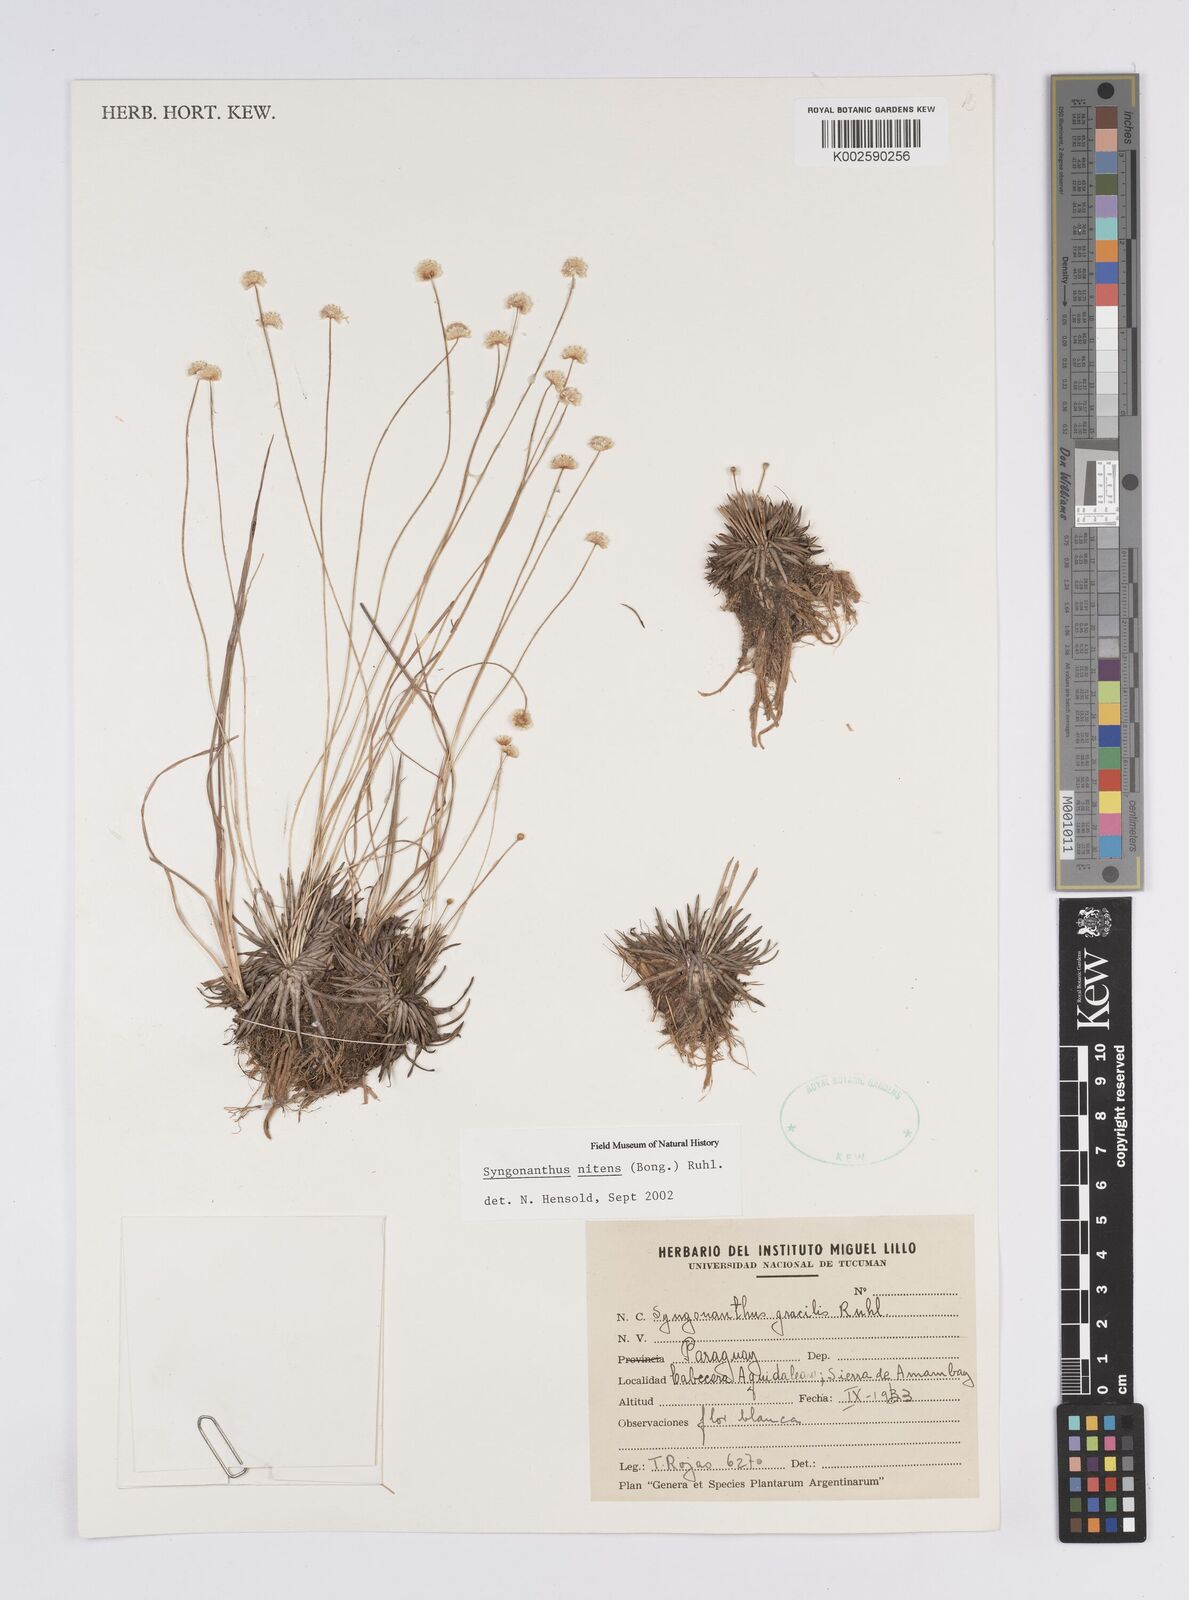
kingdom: Plantae
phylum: Tracheophyta
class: Liliopsida
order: Poales
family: Eriocaulaceae
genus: Syngonanthus
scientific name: Syngonanthus nitens
